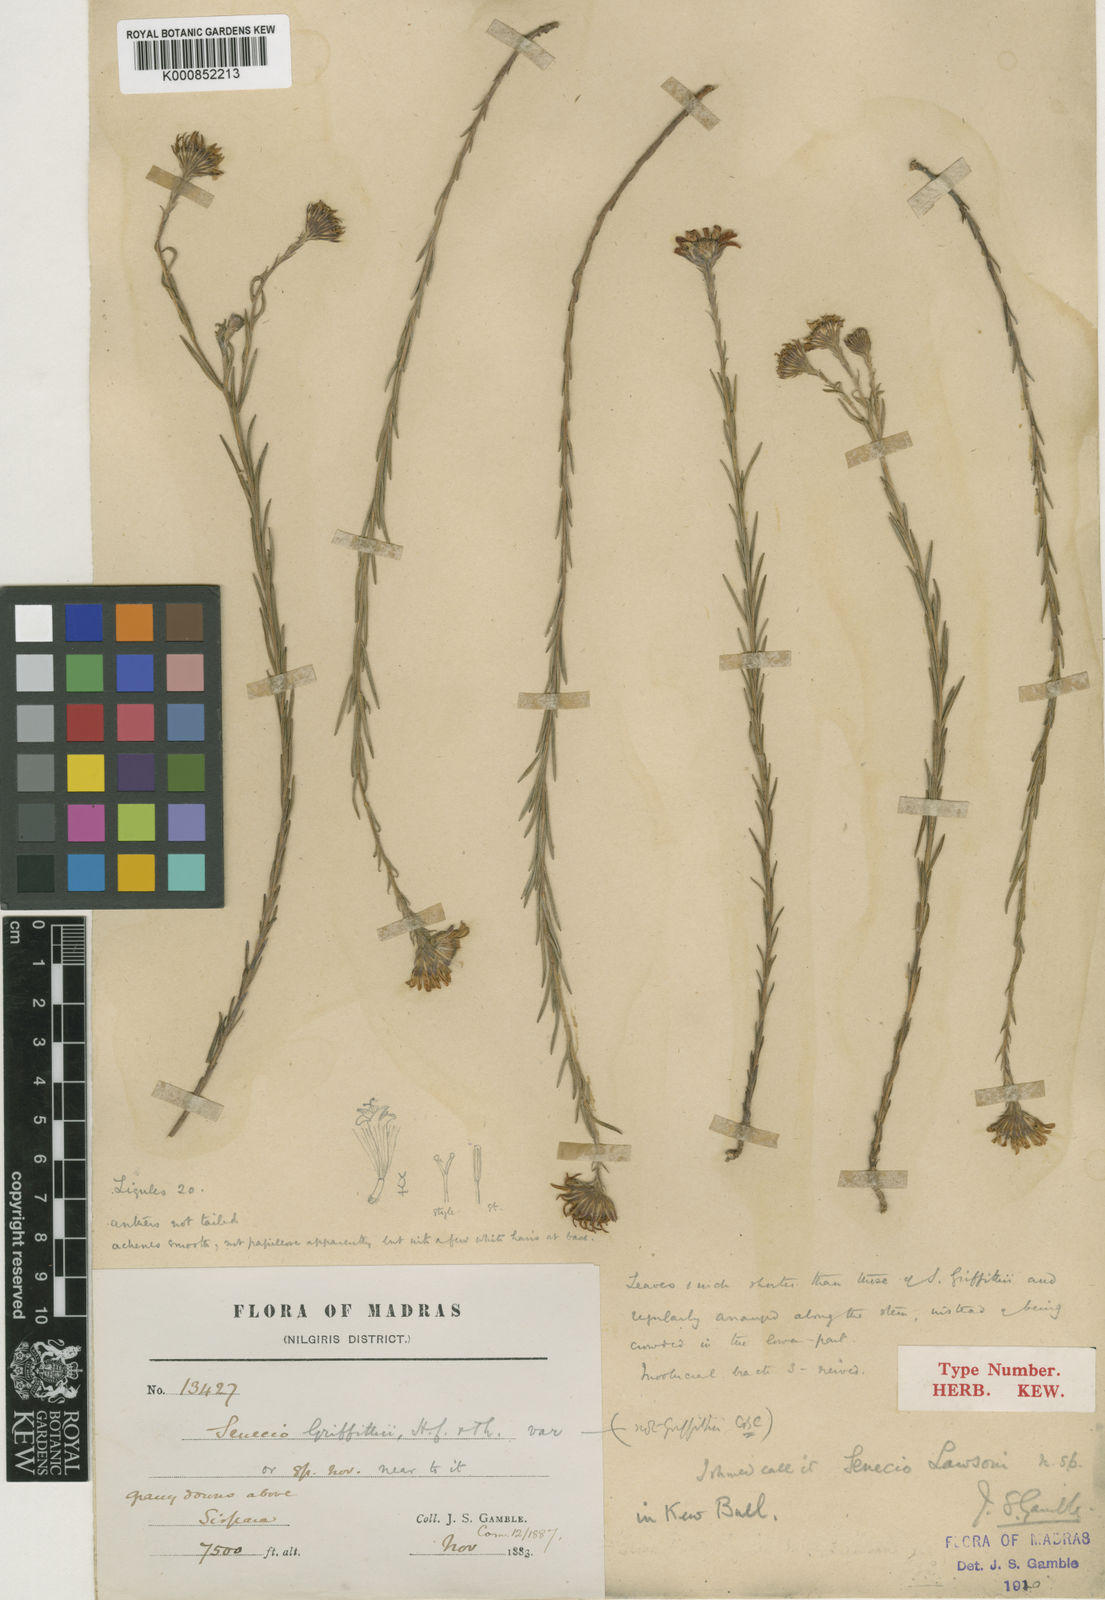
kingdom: Plantae
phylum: Tracheophyta
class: Magnoliopsida
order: Asterales
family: Asteraceae
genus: Senecio
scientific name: Senecio lawsonii
